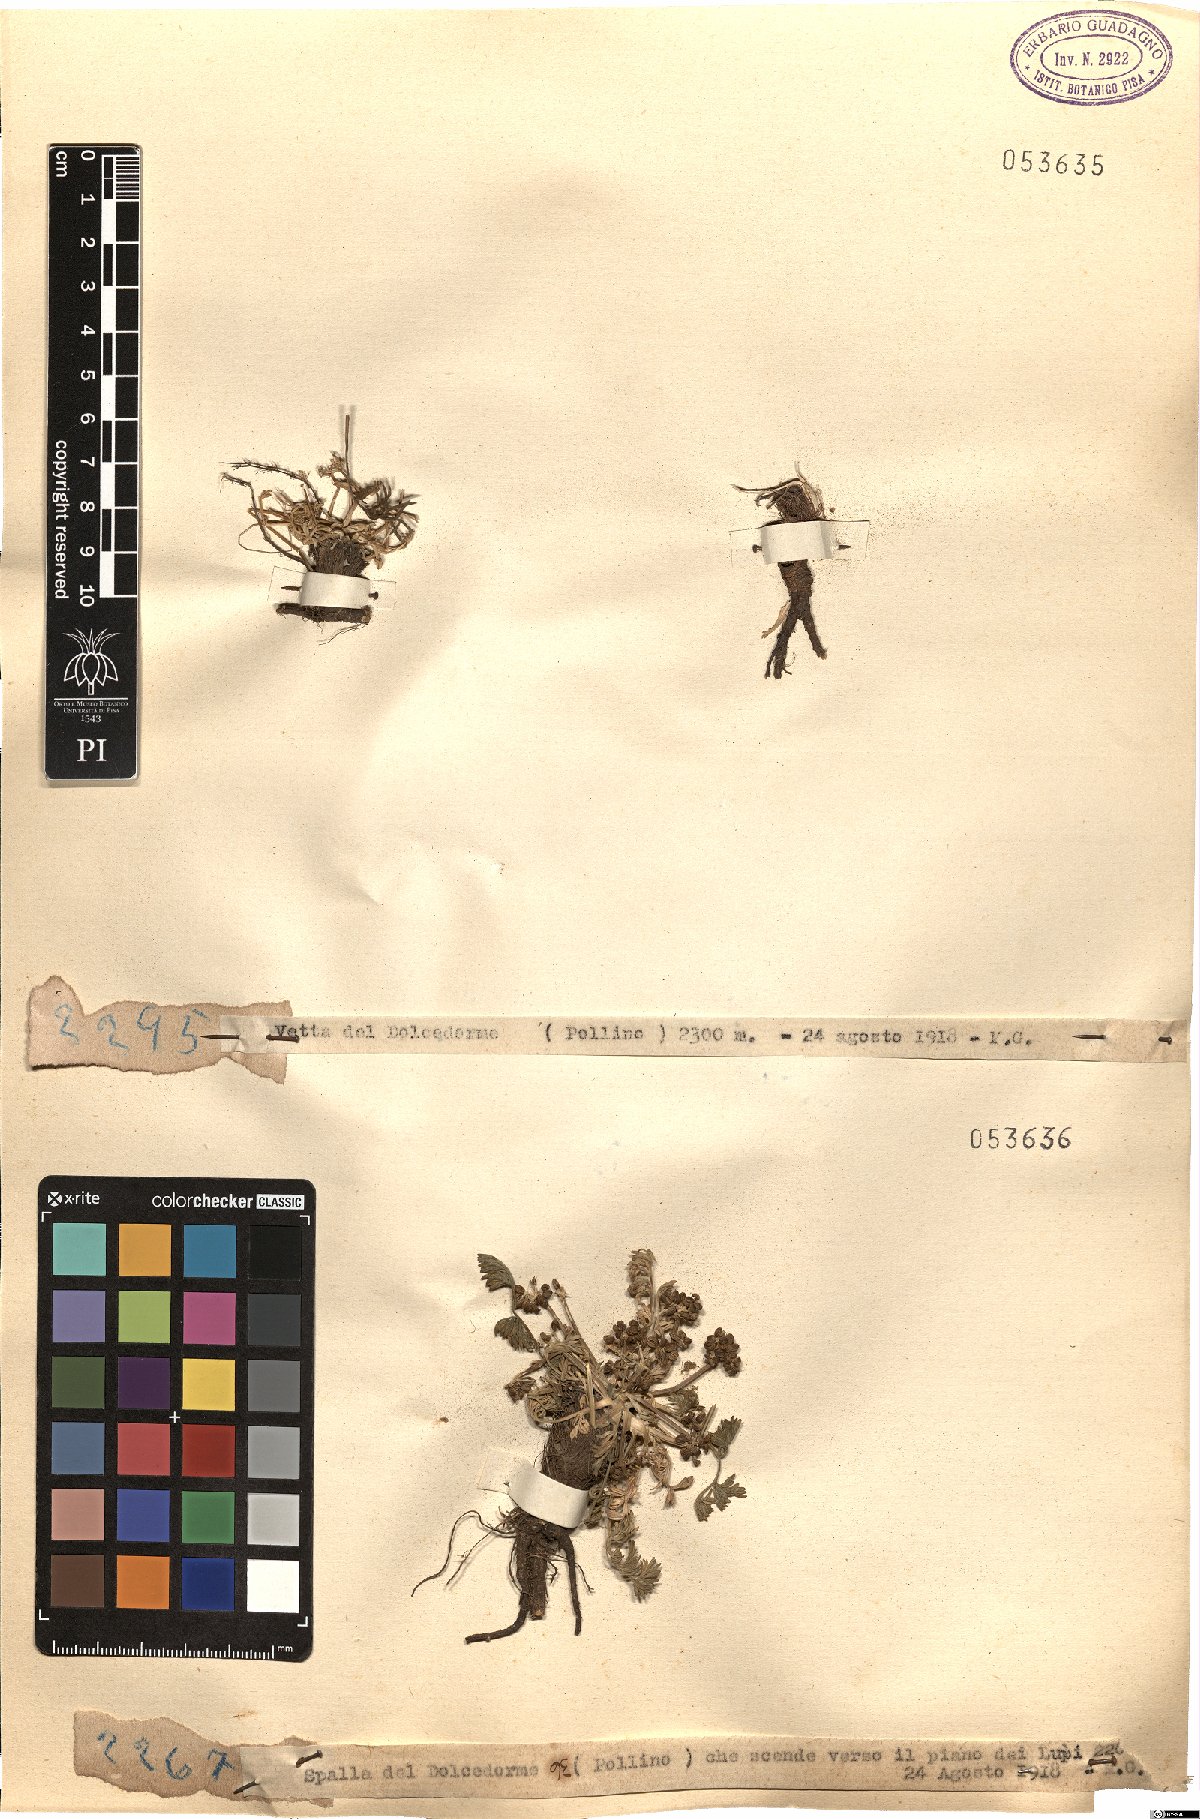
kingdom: Plantae
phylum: Tracheophyta
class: Magnoliopsida
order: Apiales
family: Apiaceae
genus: Trinia
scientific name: Trinia
